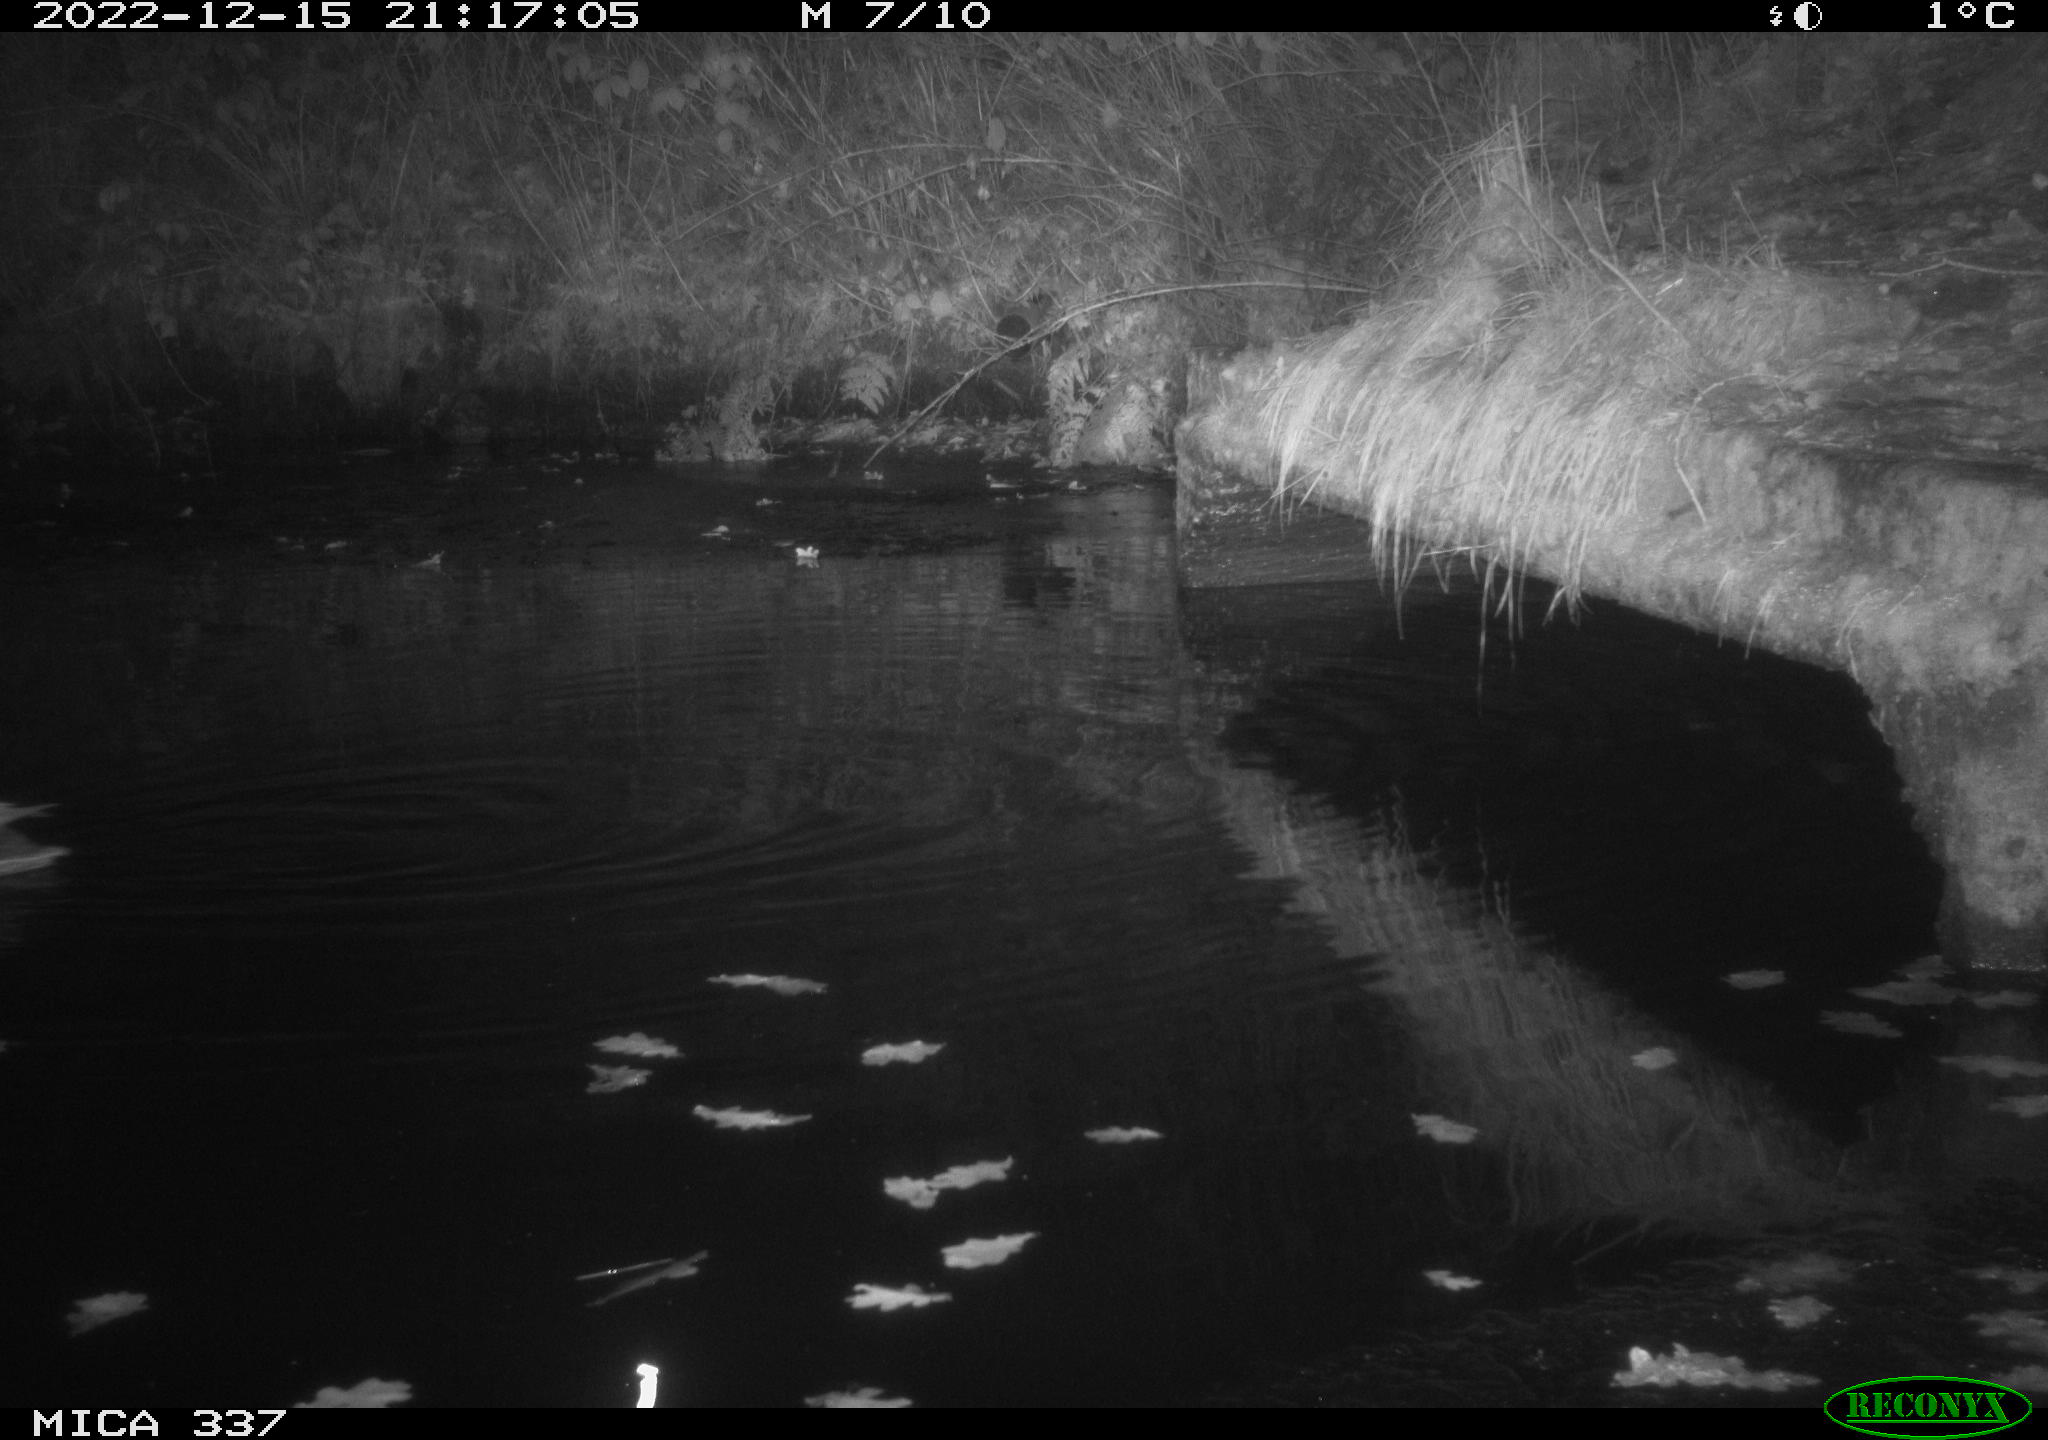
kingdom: Animalia
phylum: Chordata
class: Aves
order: Anseriformes
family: Anatidae
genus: Anas
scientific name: Anas
